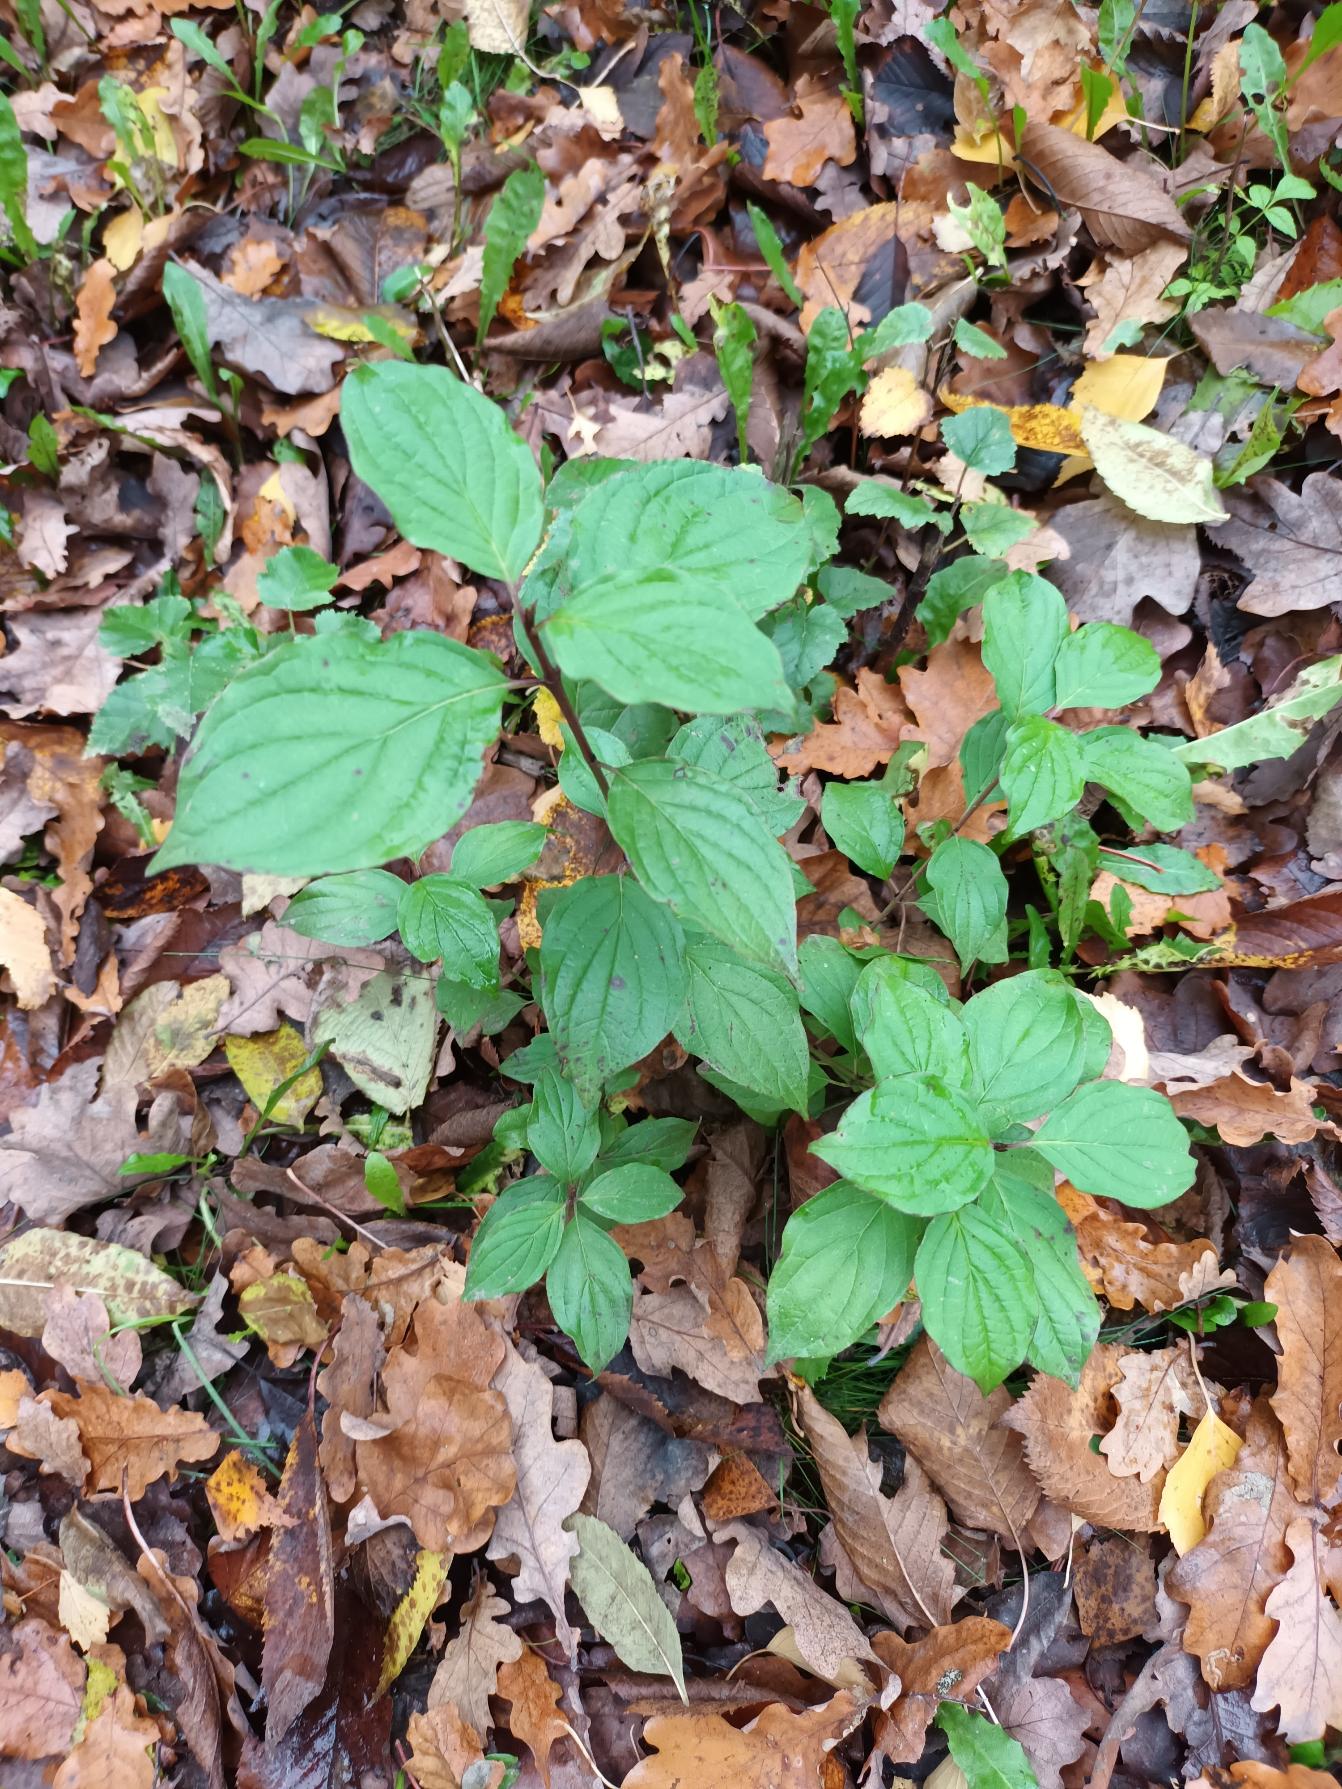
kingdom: Plantae
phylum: Tracheophyta
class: Magnoliopsida
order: Cornales
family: Cornaceae
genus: Cornus
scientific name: Cornus sanguinea
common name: Rød kornel
